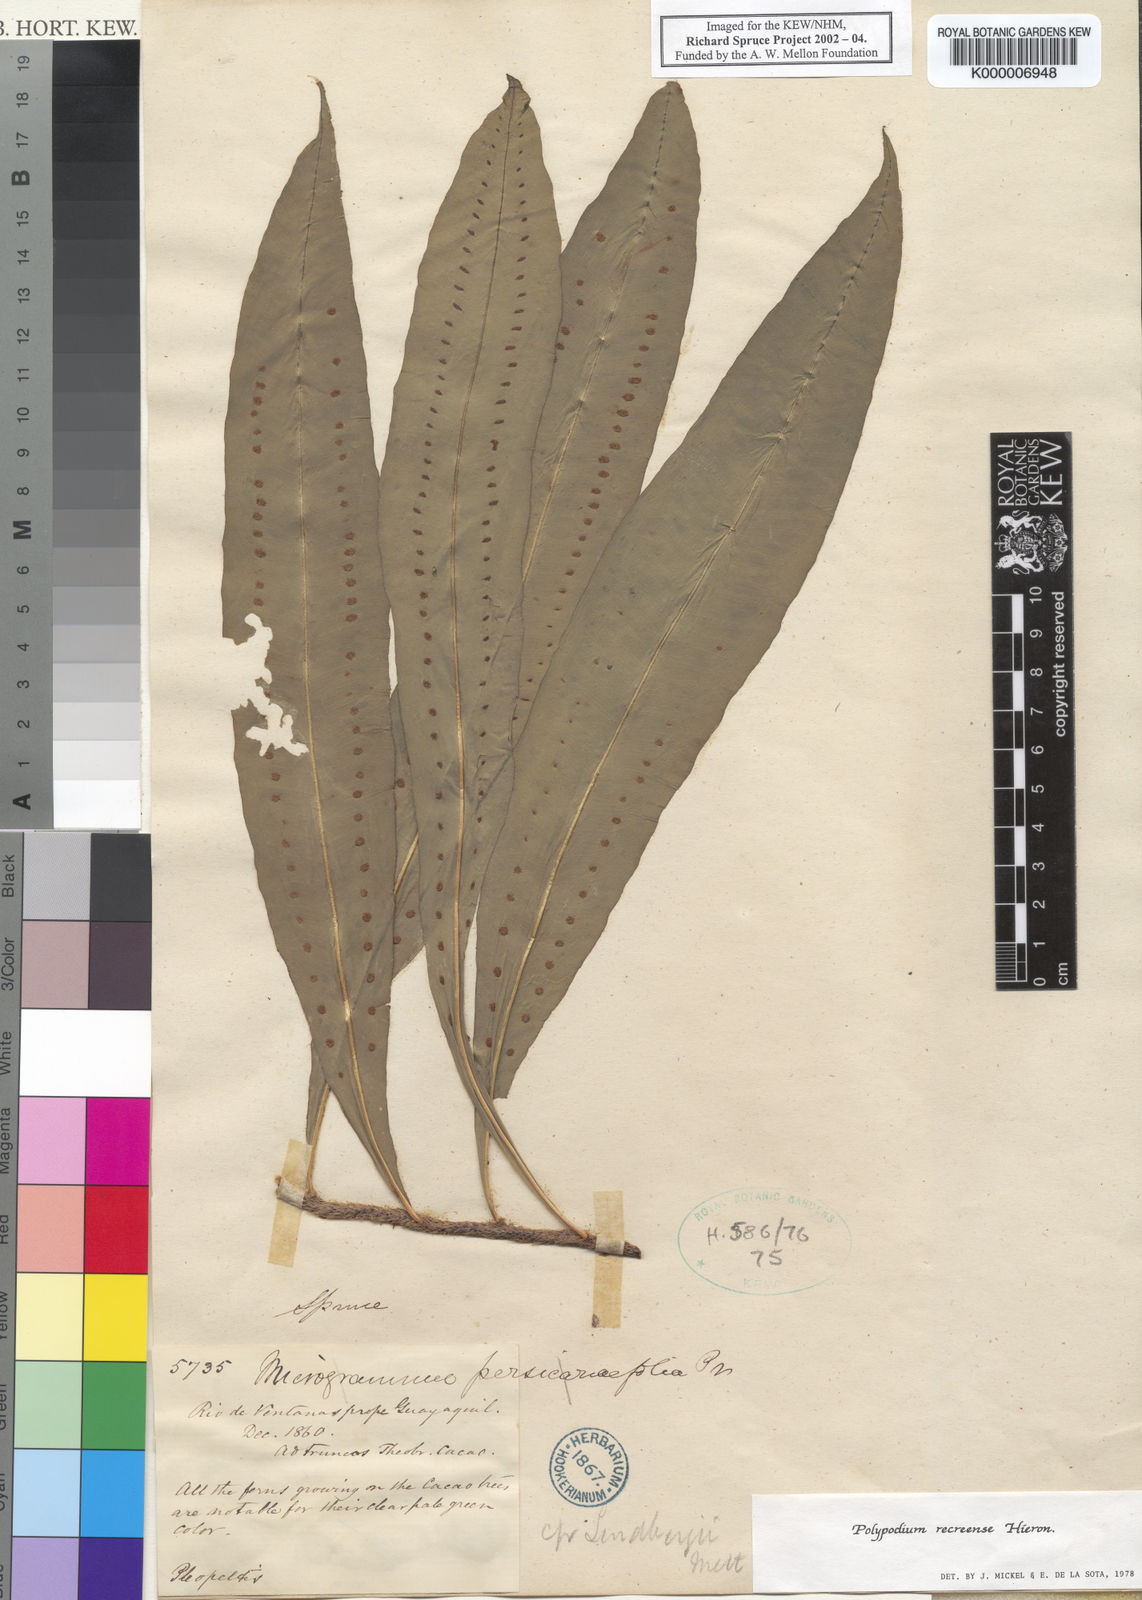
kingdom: Plantae
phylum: Tracheophyta
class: Polypodiopsida
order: Polypodiales
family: Polypodiaceae
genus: Microgramma
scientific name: Microgramma recreense
